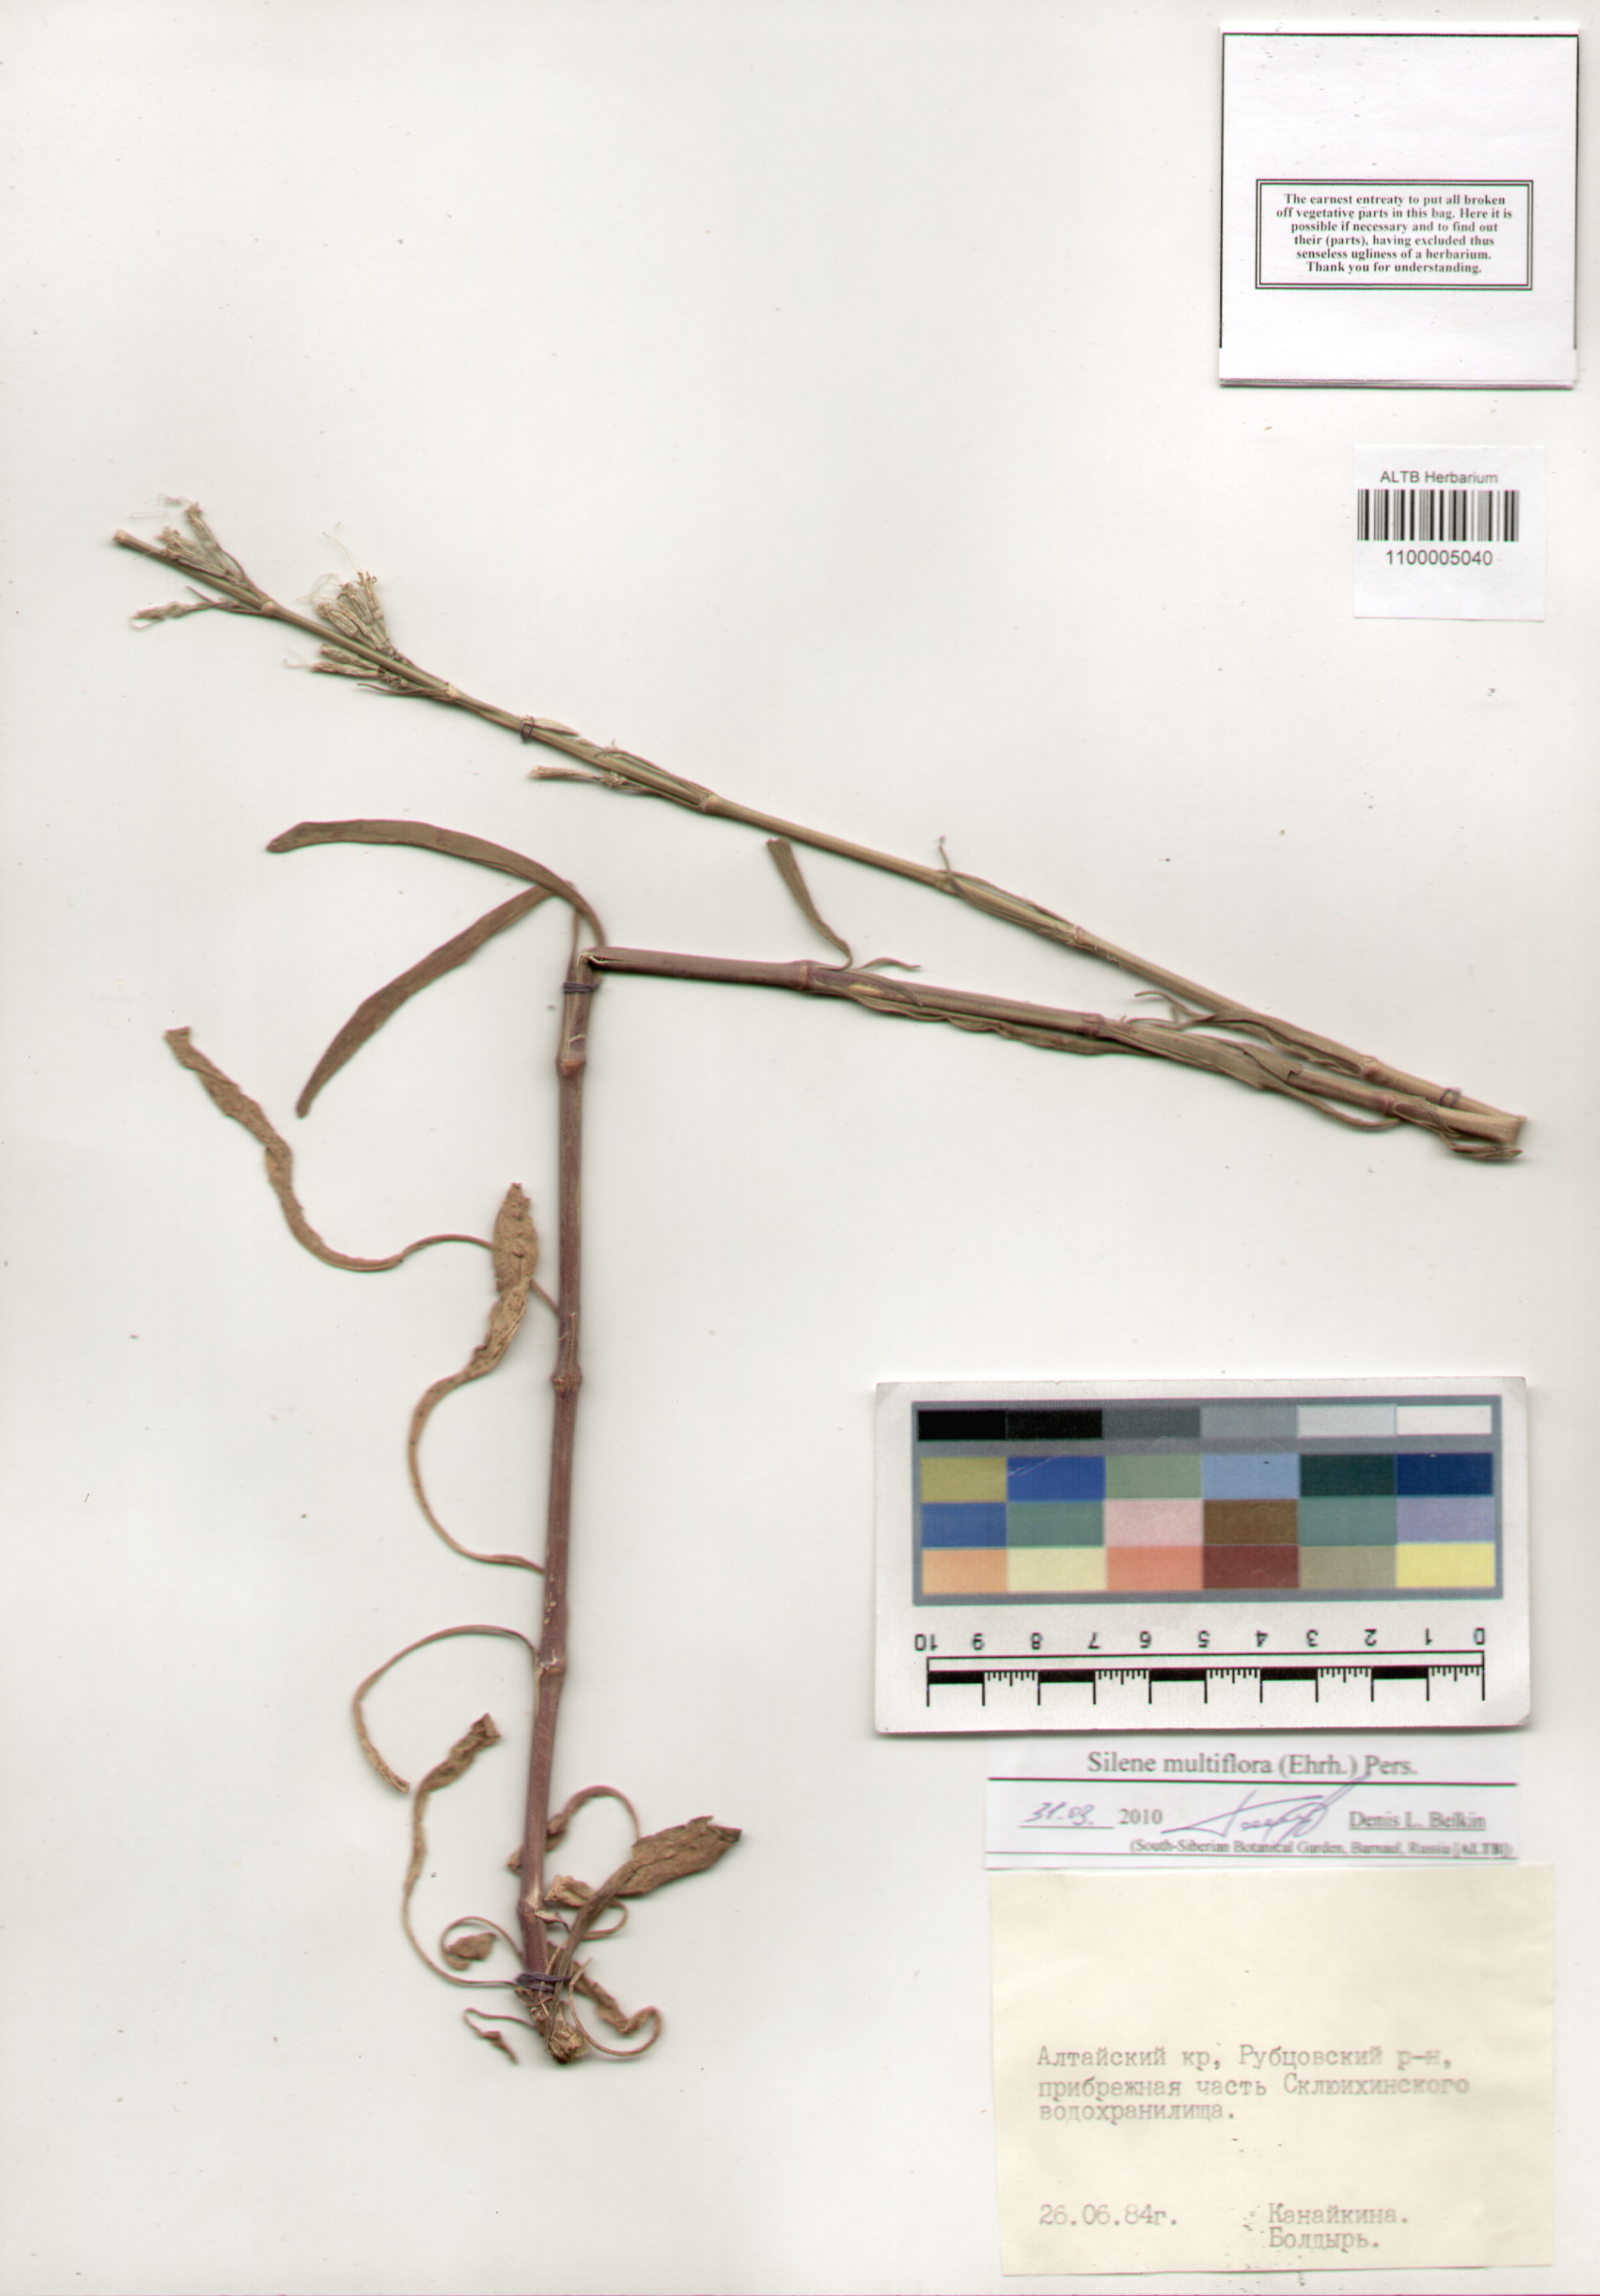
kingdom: Plantae
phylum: Tracheophyta
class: Magnoliopsida
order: Caryophyllales
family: Caryophyllaceae
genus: Silene
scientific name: Silene multiflora
